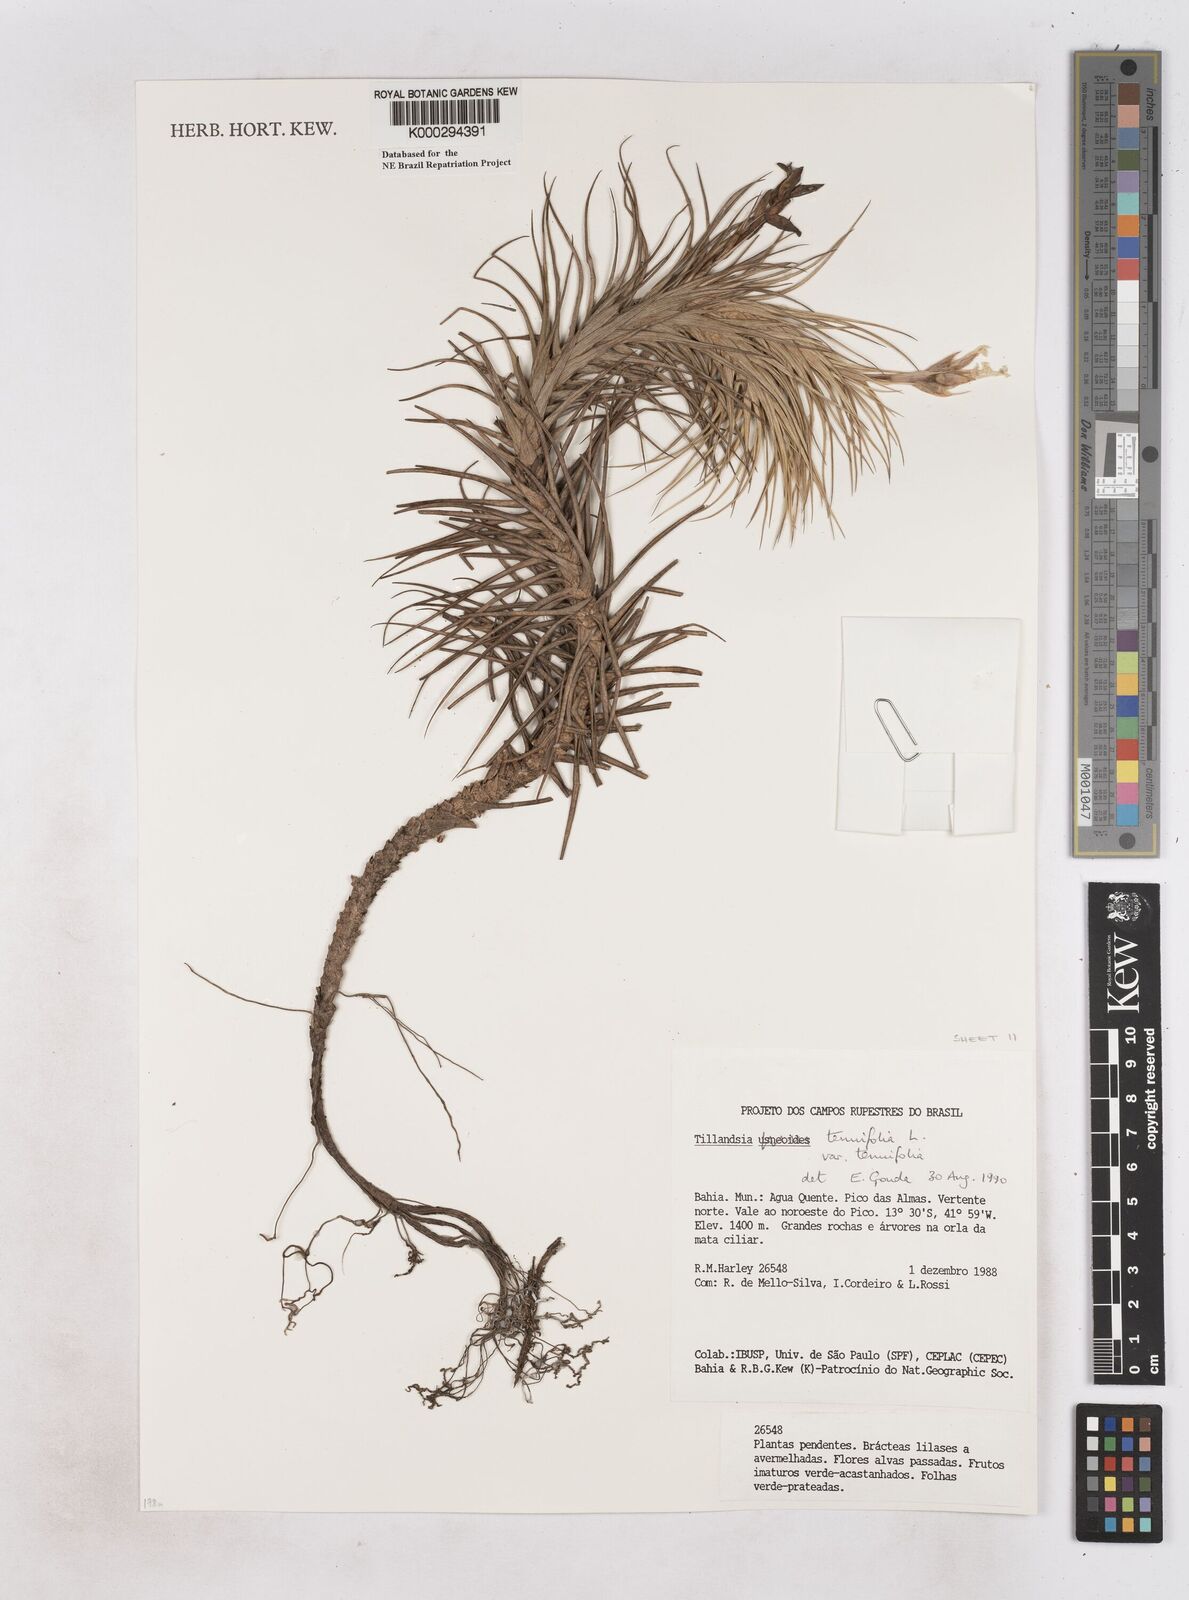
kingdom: Plantae
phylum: Tracheophyta
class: Liliopsida
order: Poales
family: Bromeliaceae
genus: Tillandsia
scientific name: Tillandsia tenuifolia
